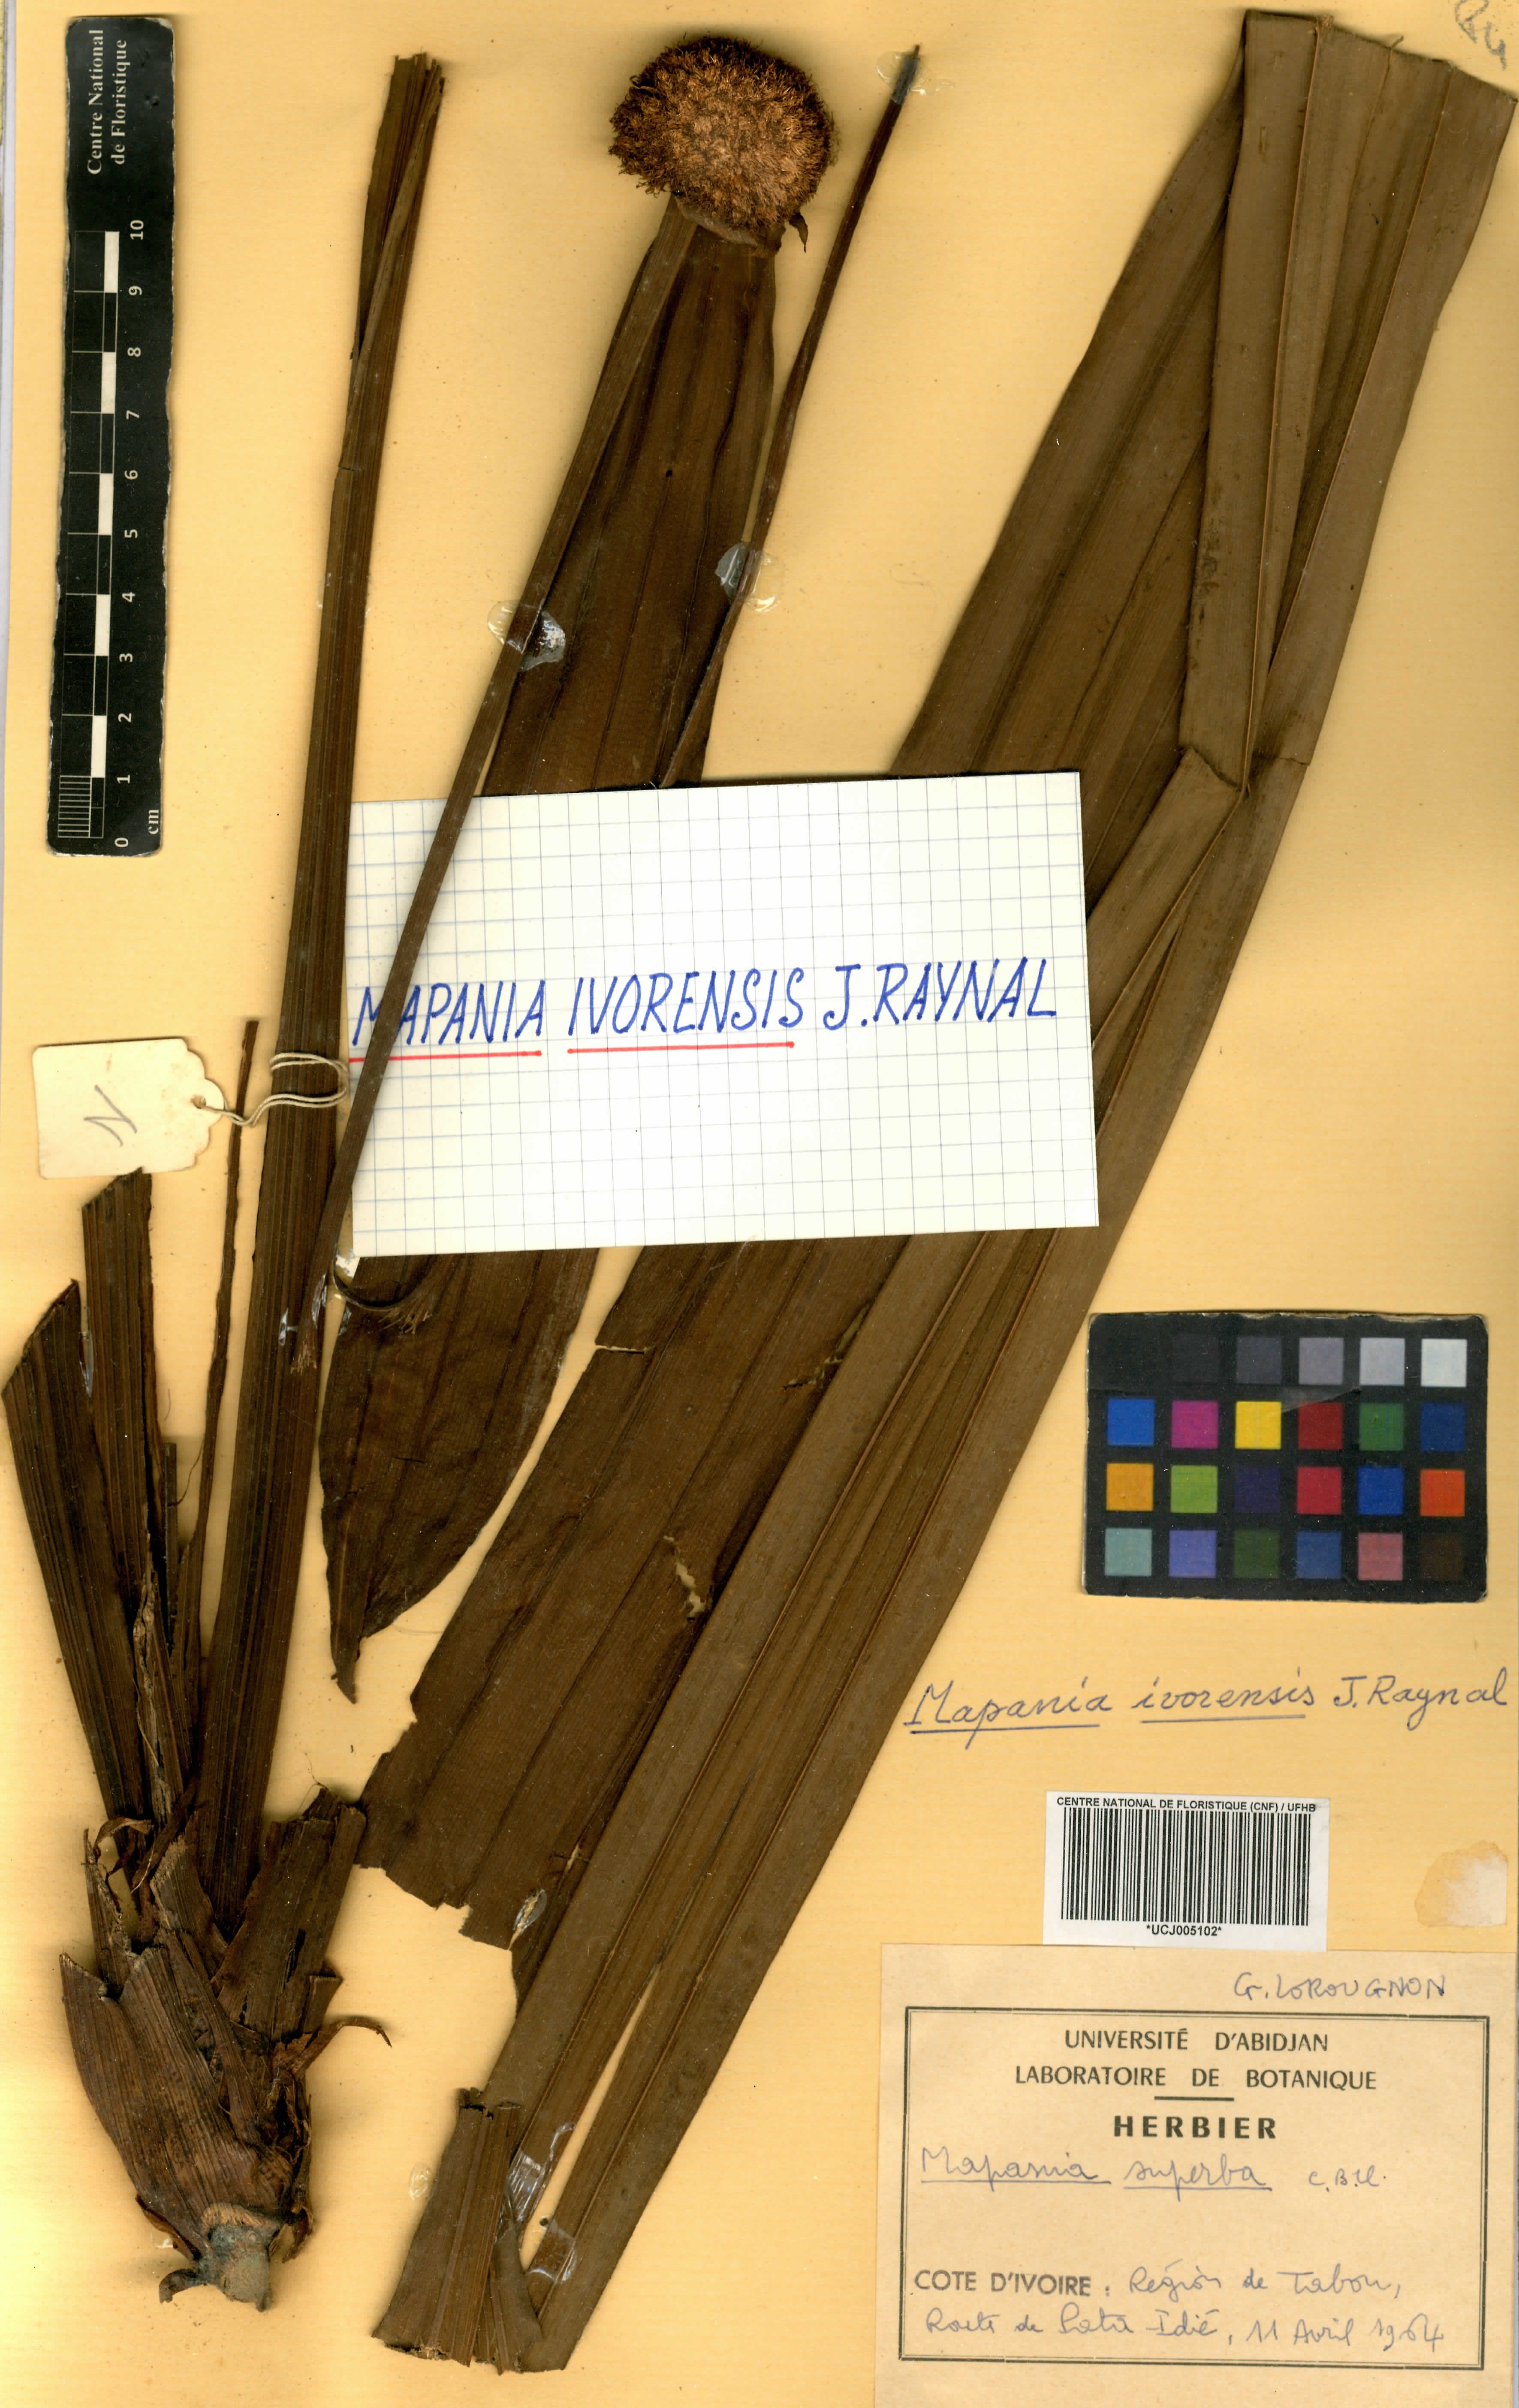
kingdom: Plantae
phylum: Tracheophyta
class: Liliopsida
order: Poales
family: Cyperaceae
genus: Mapania
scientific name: Mapania macrantha
